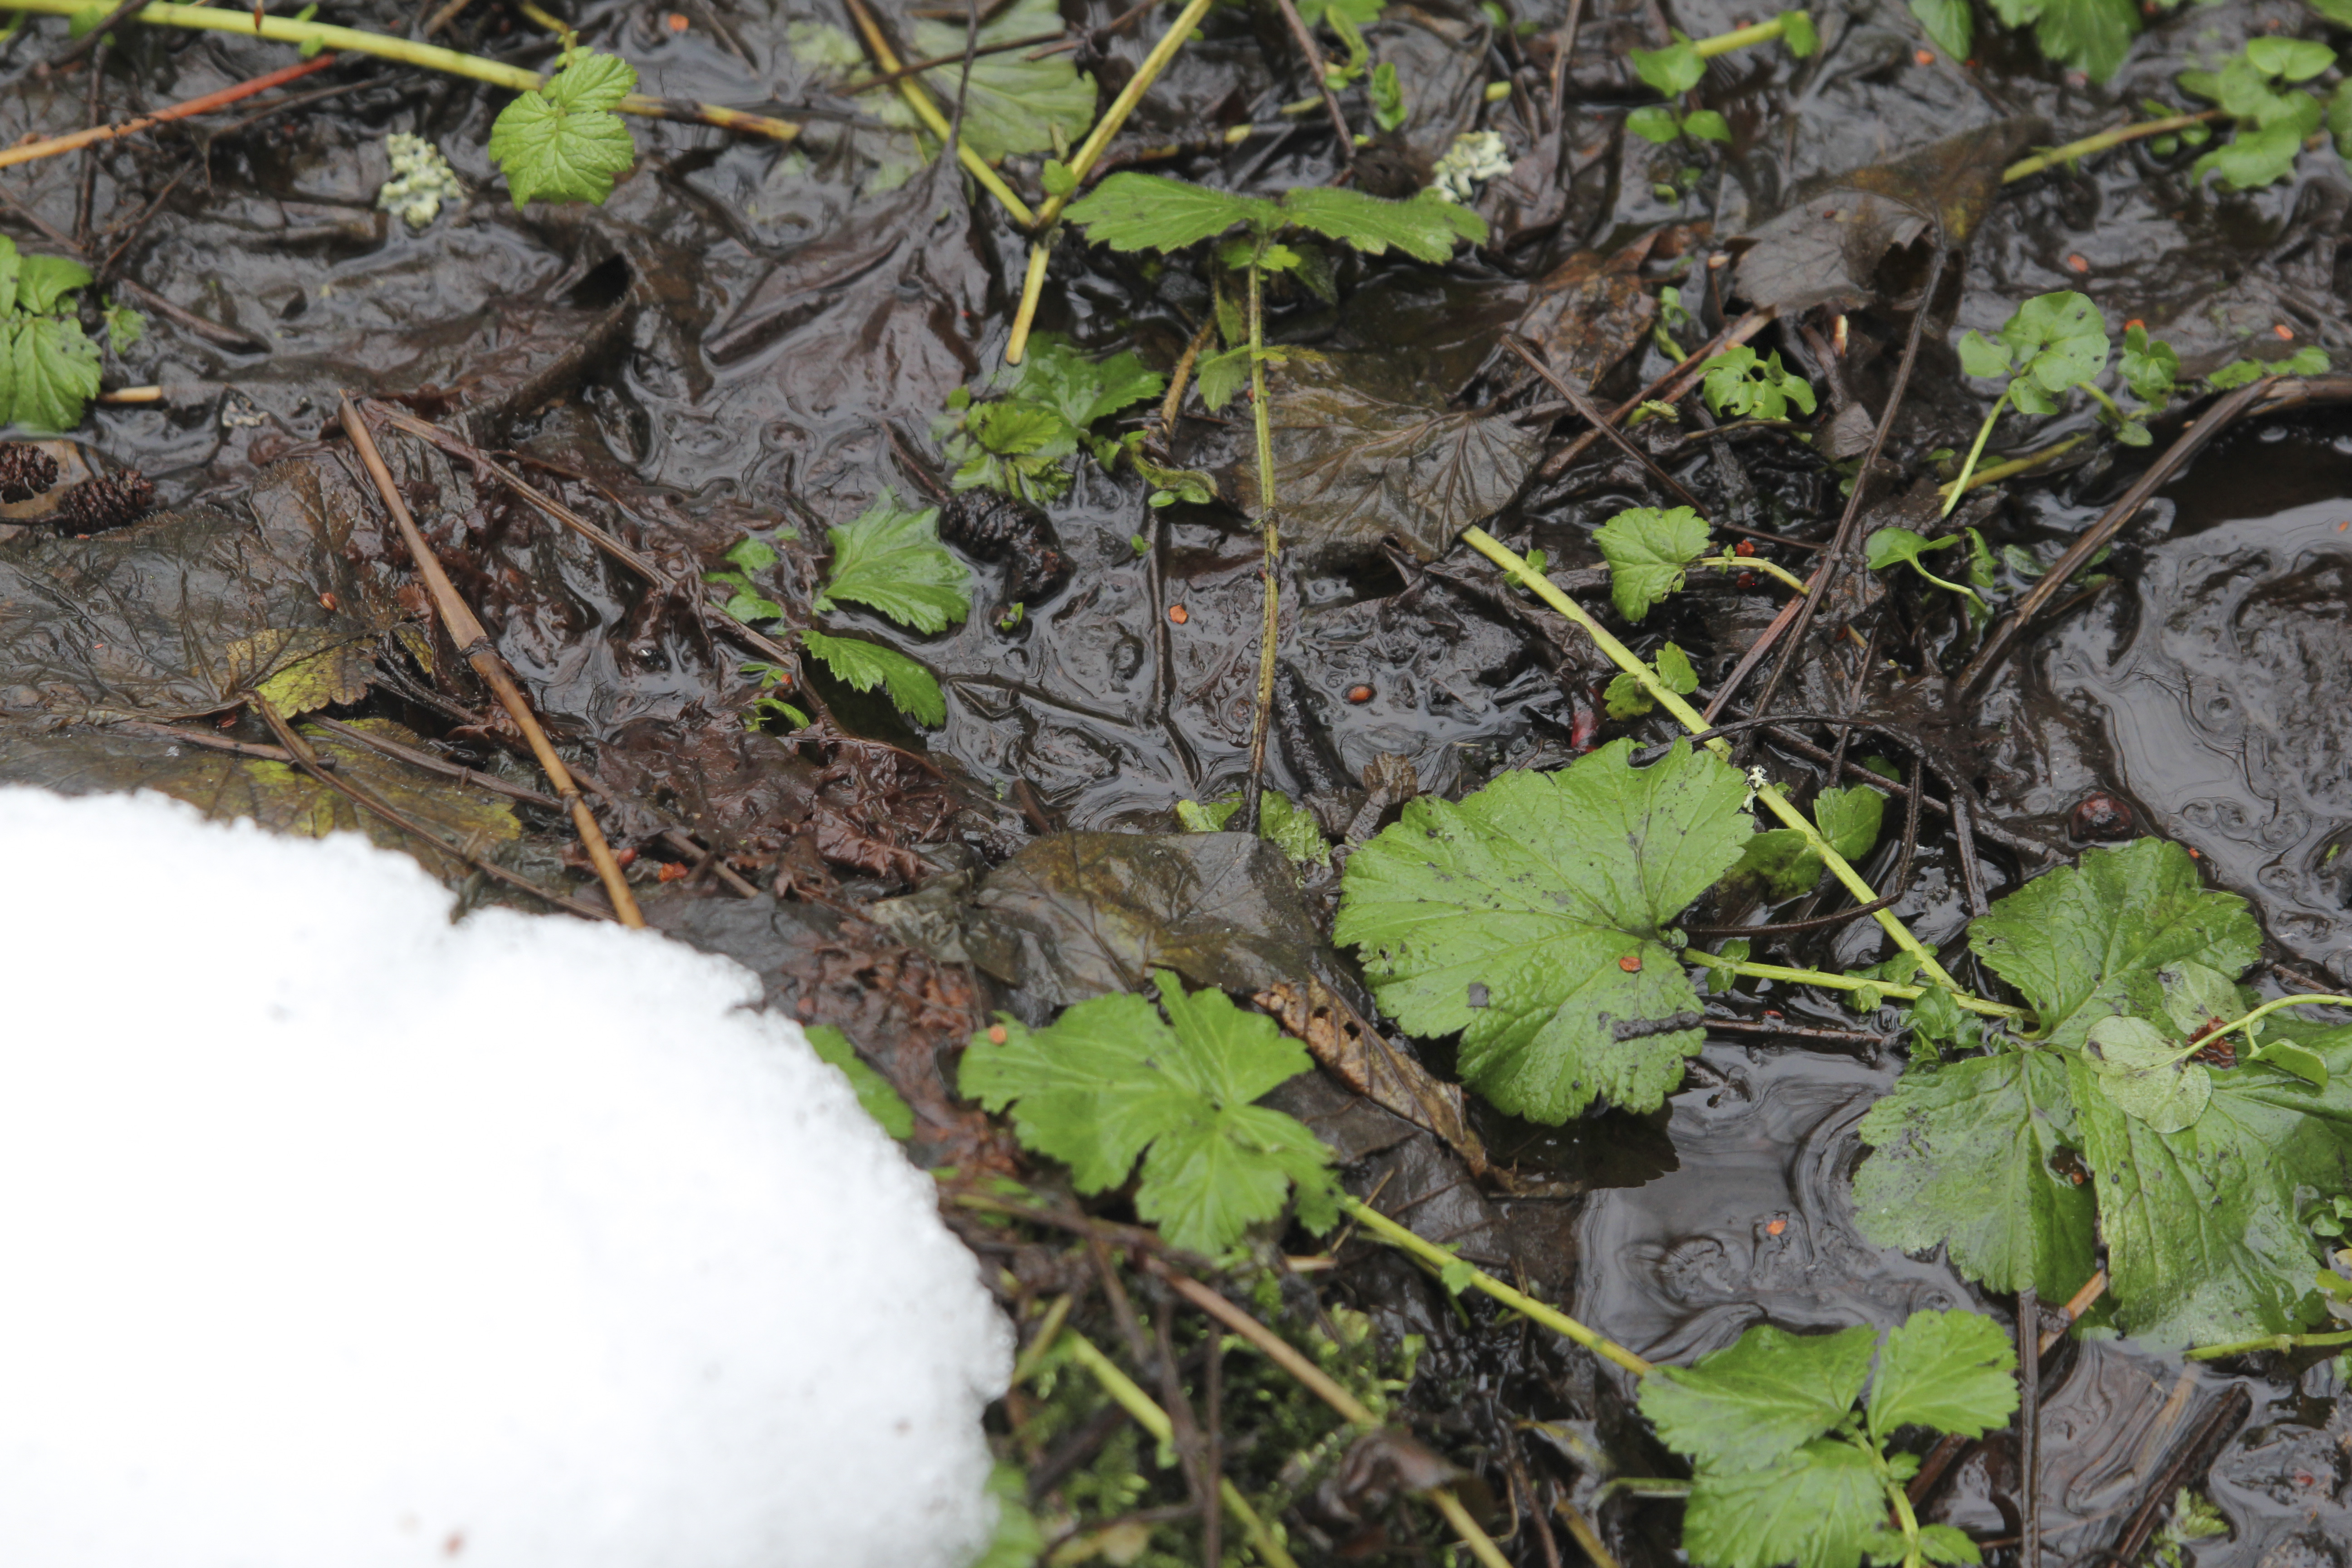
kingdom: Plantae
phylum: Tracheophyta
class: Magnoliopsida
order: Rosales
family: Rosaceae
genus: Geum
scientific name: Geum rivale
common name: Water avens
